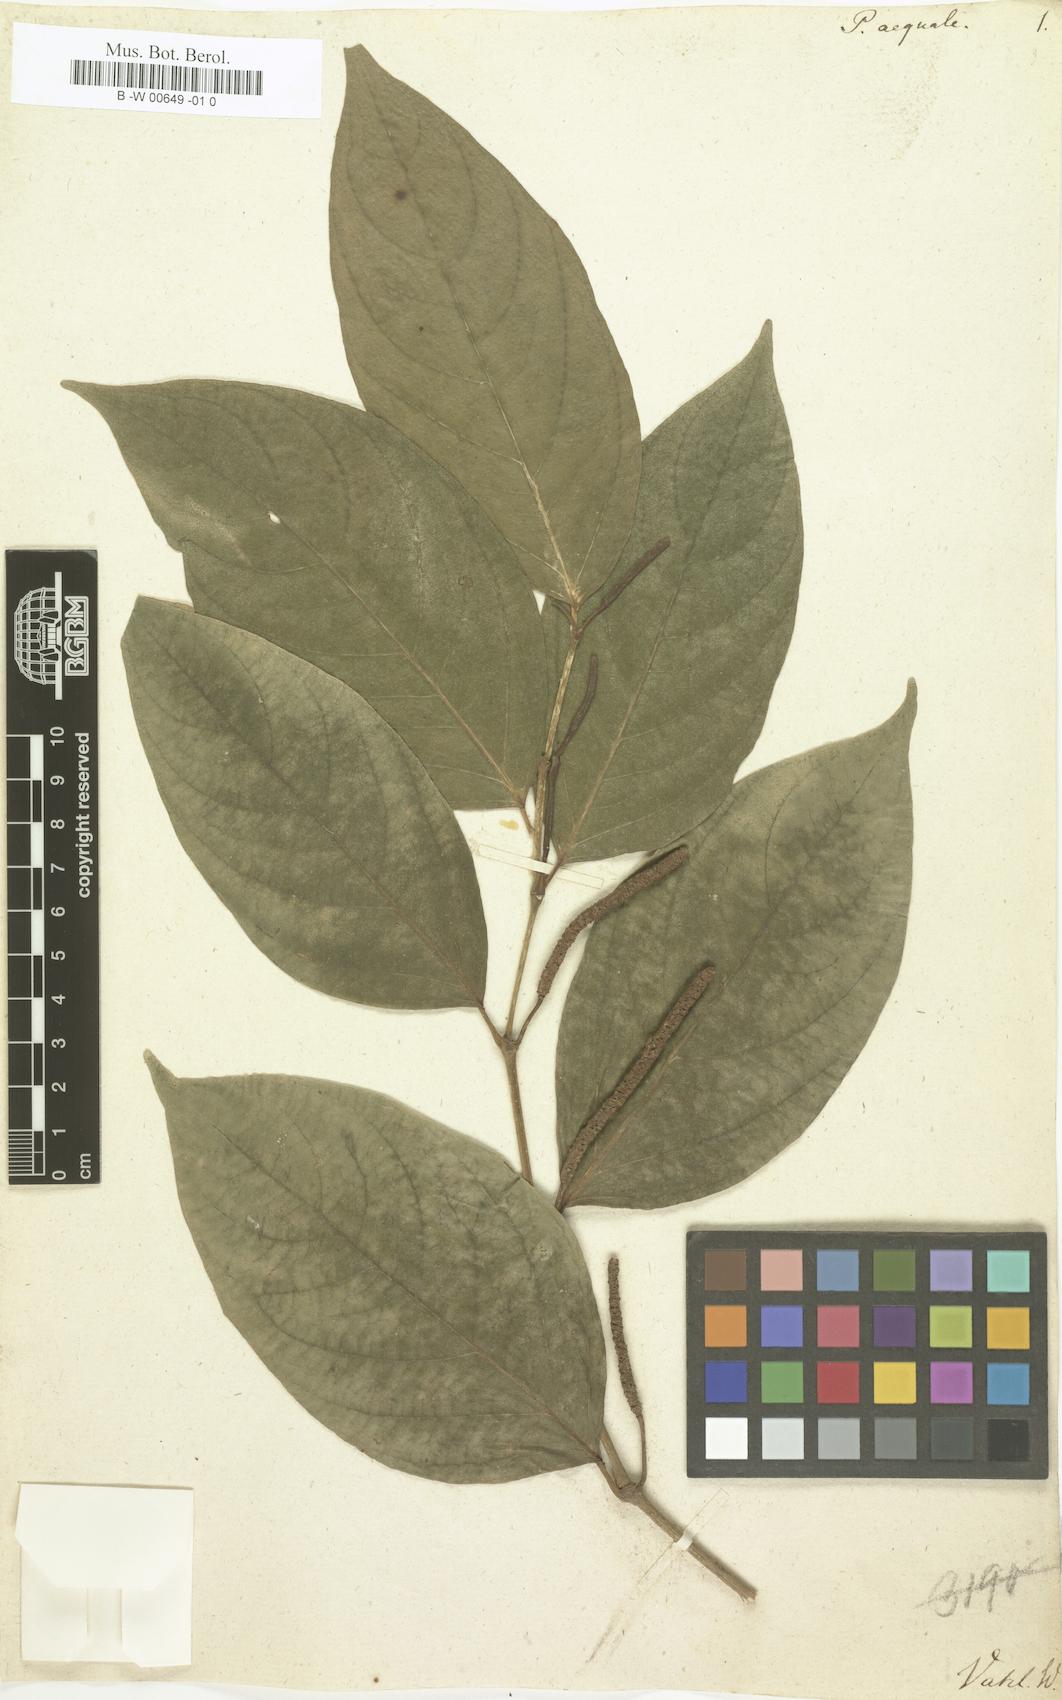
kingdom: Plantae
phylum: Tracheophyta
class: Magnoliopsida
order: Piperales
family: Piperaceae
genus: Piper
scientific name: Piper aequale
